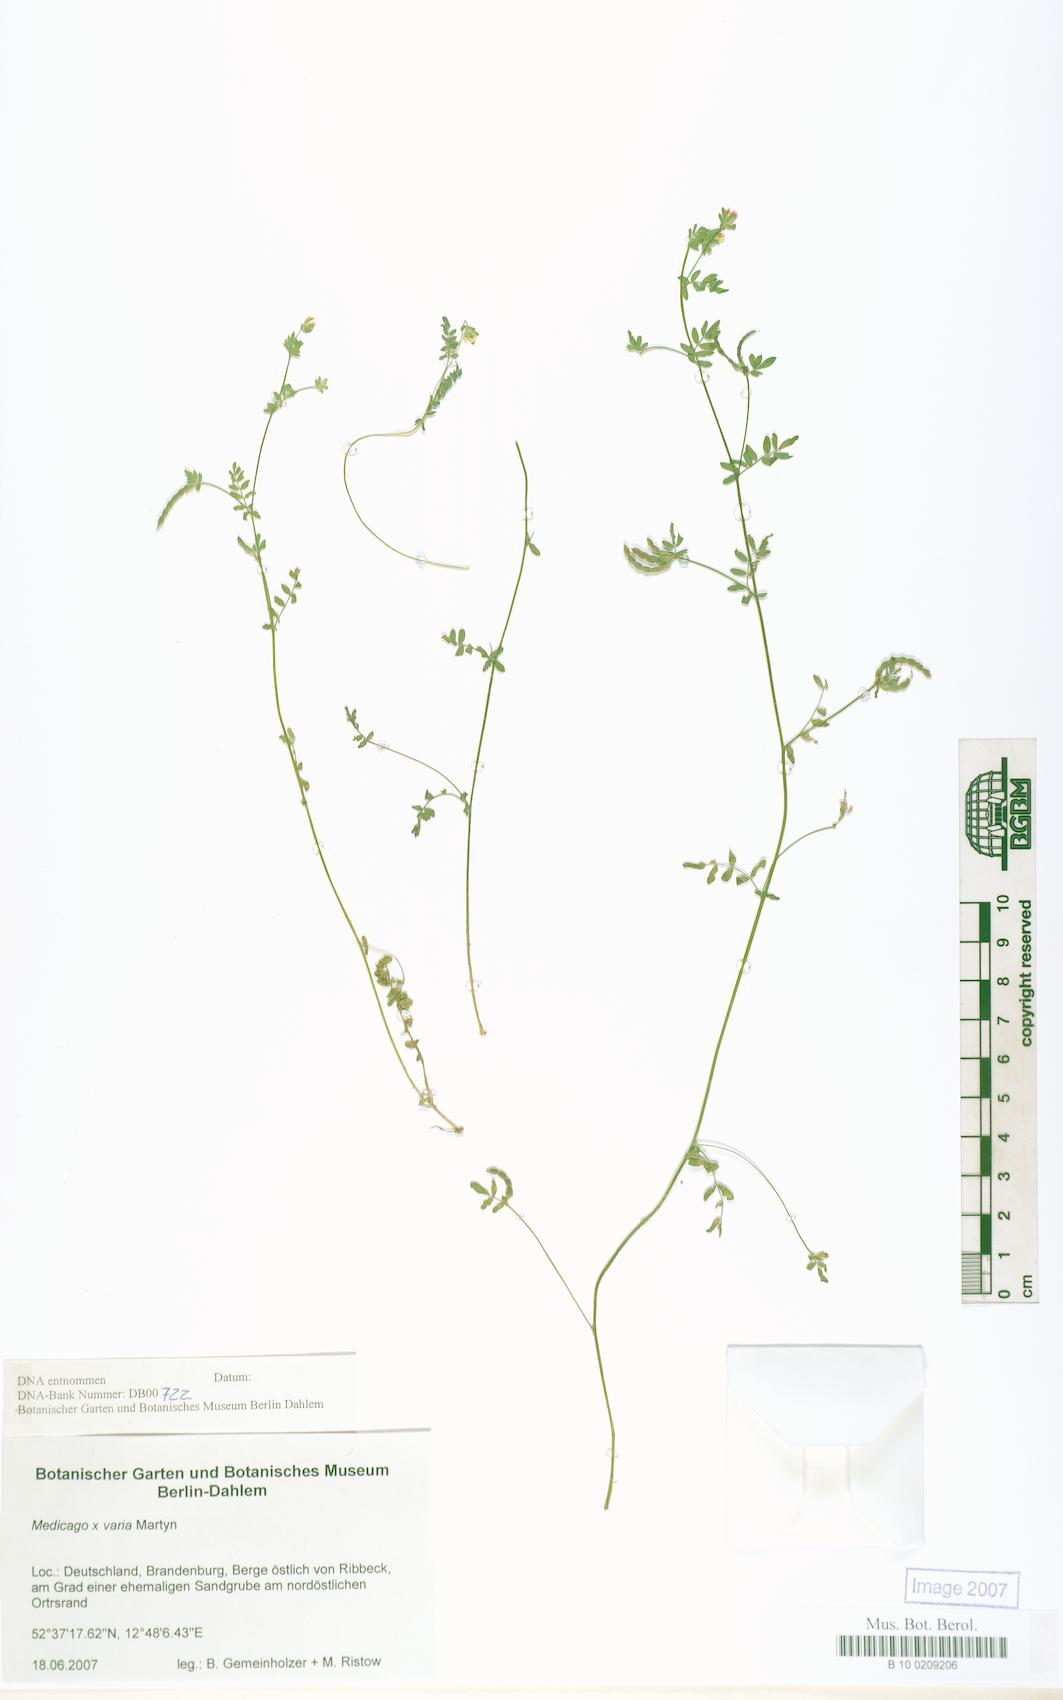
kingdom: Plantae
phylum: Tracheophyta
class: Magnoliopsida
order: Fabales
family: Fabaceae
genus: Medicago
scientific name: Medicago varia
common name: Sand lucerne
